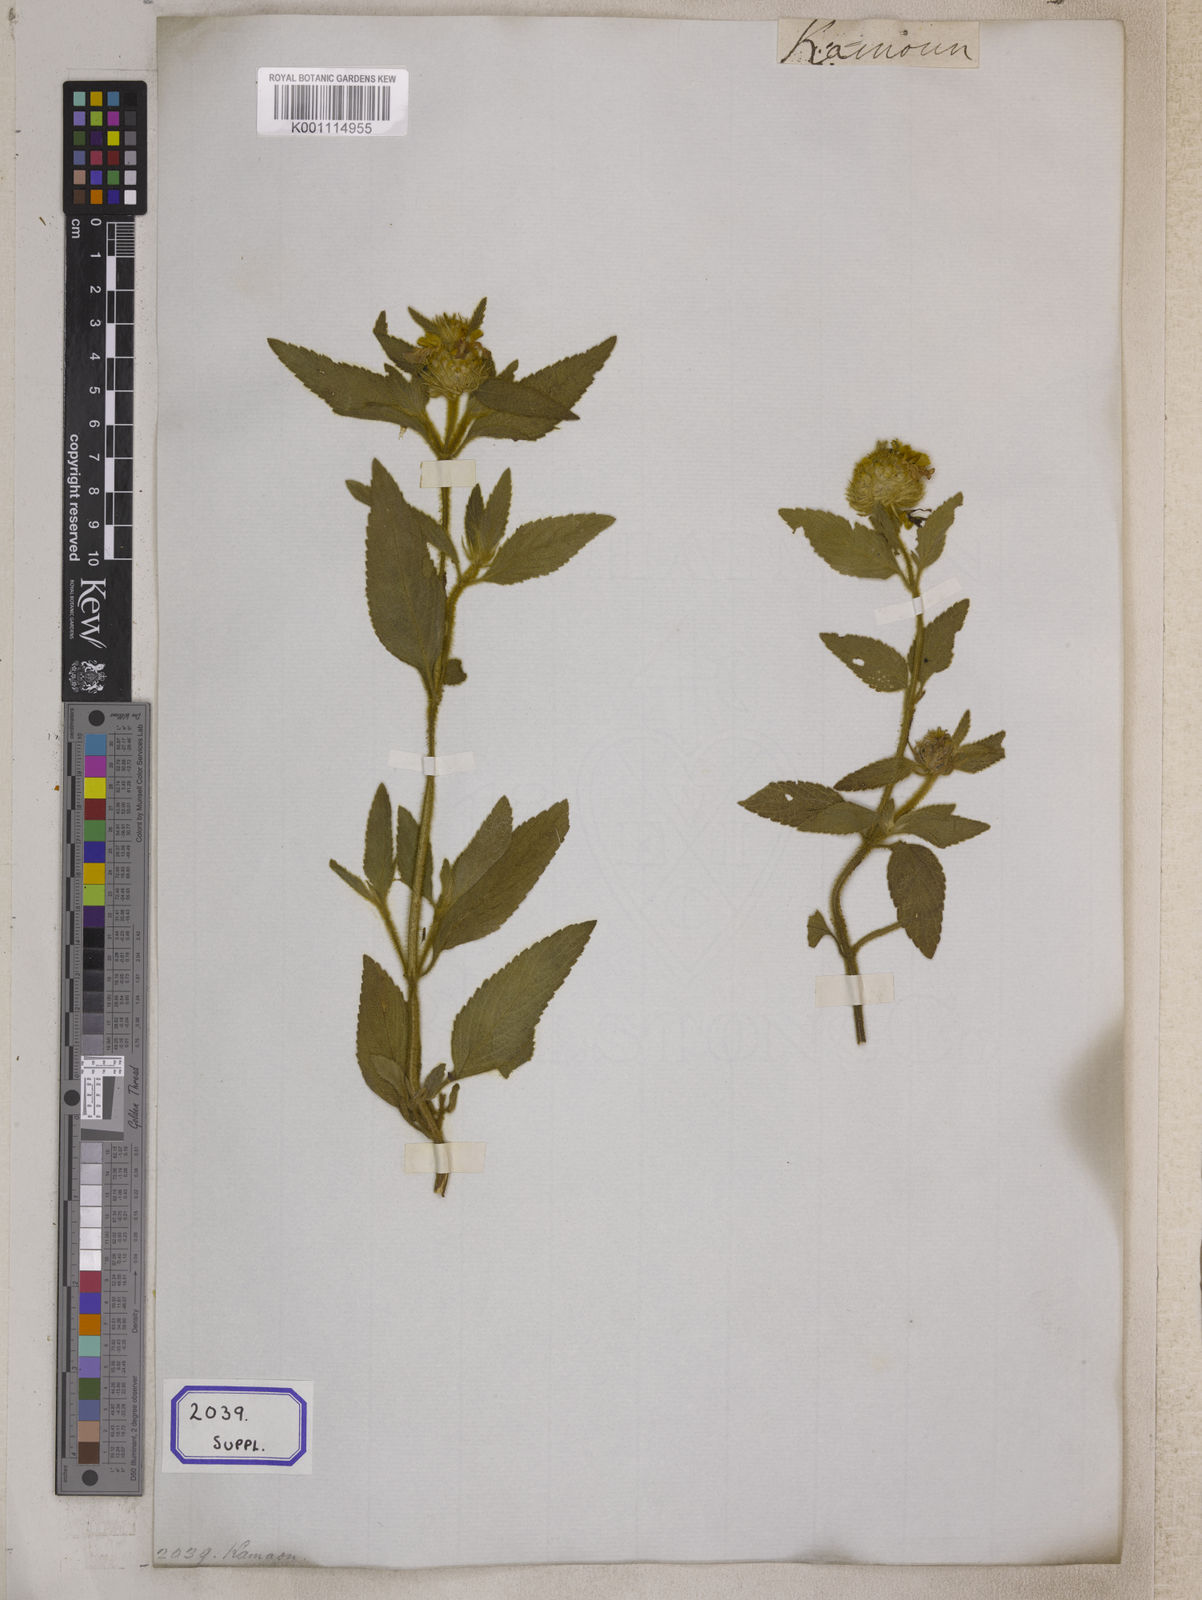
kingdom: Plantae
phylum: Tracheophyta
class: Magnoliopsida
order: Lamiales
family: Lamiaceae
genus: Leucas
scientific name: Leucas vestita
